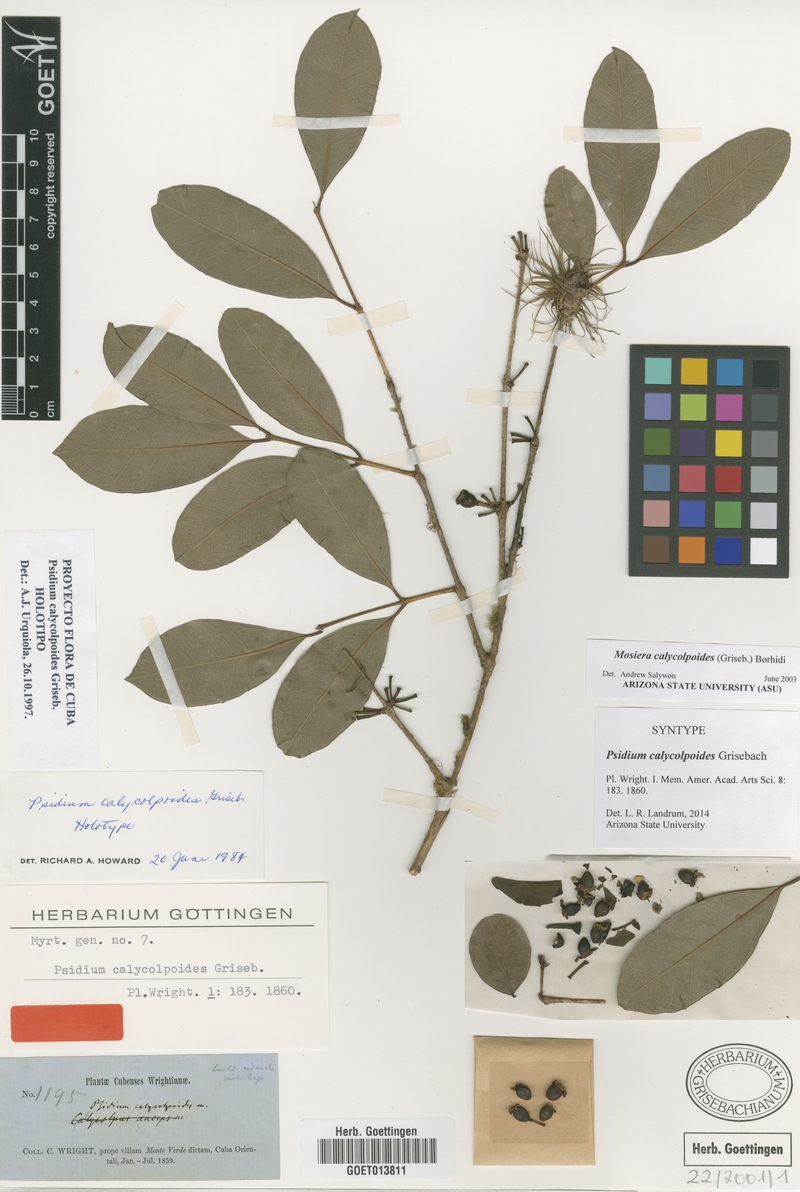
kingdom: Plantae
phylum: Tracheophyta
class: Magnoliopsida
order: Myrtales
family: Myrtaceae
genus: Mosiera
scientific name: Mosiera calycolpoides
